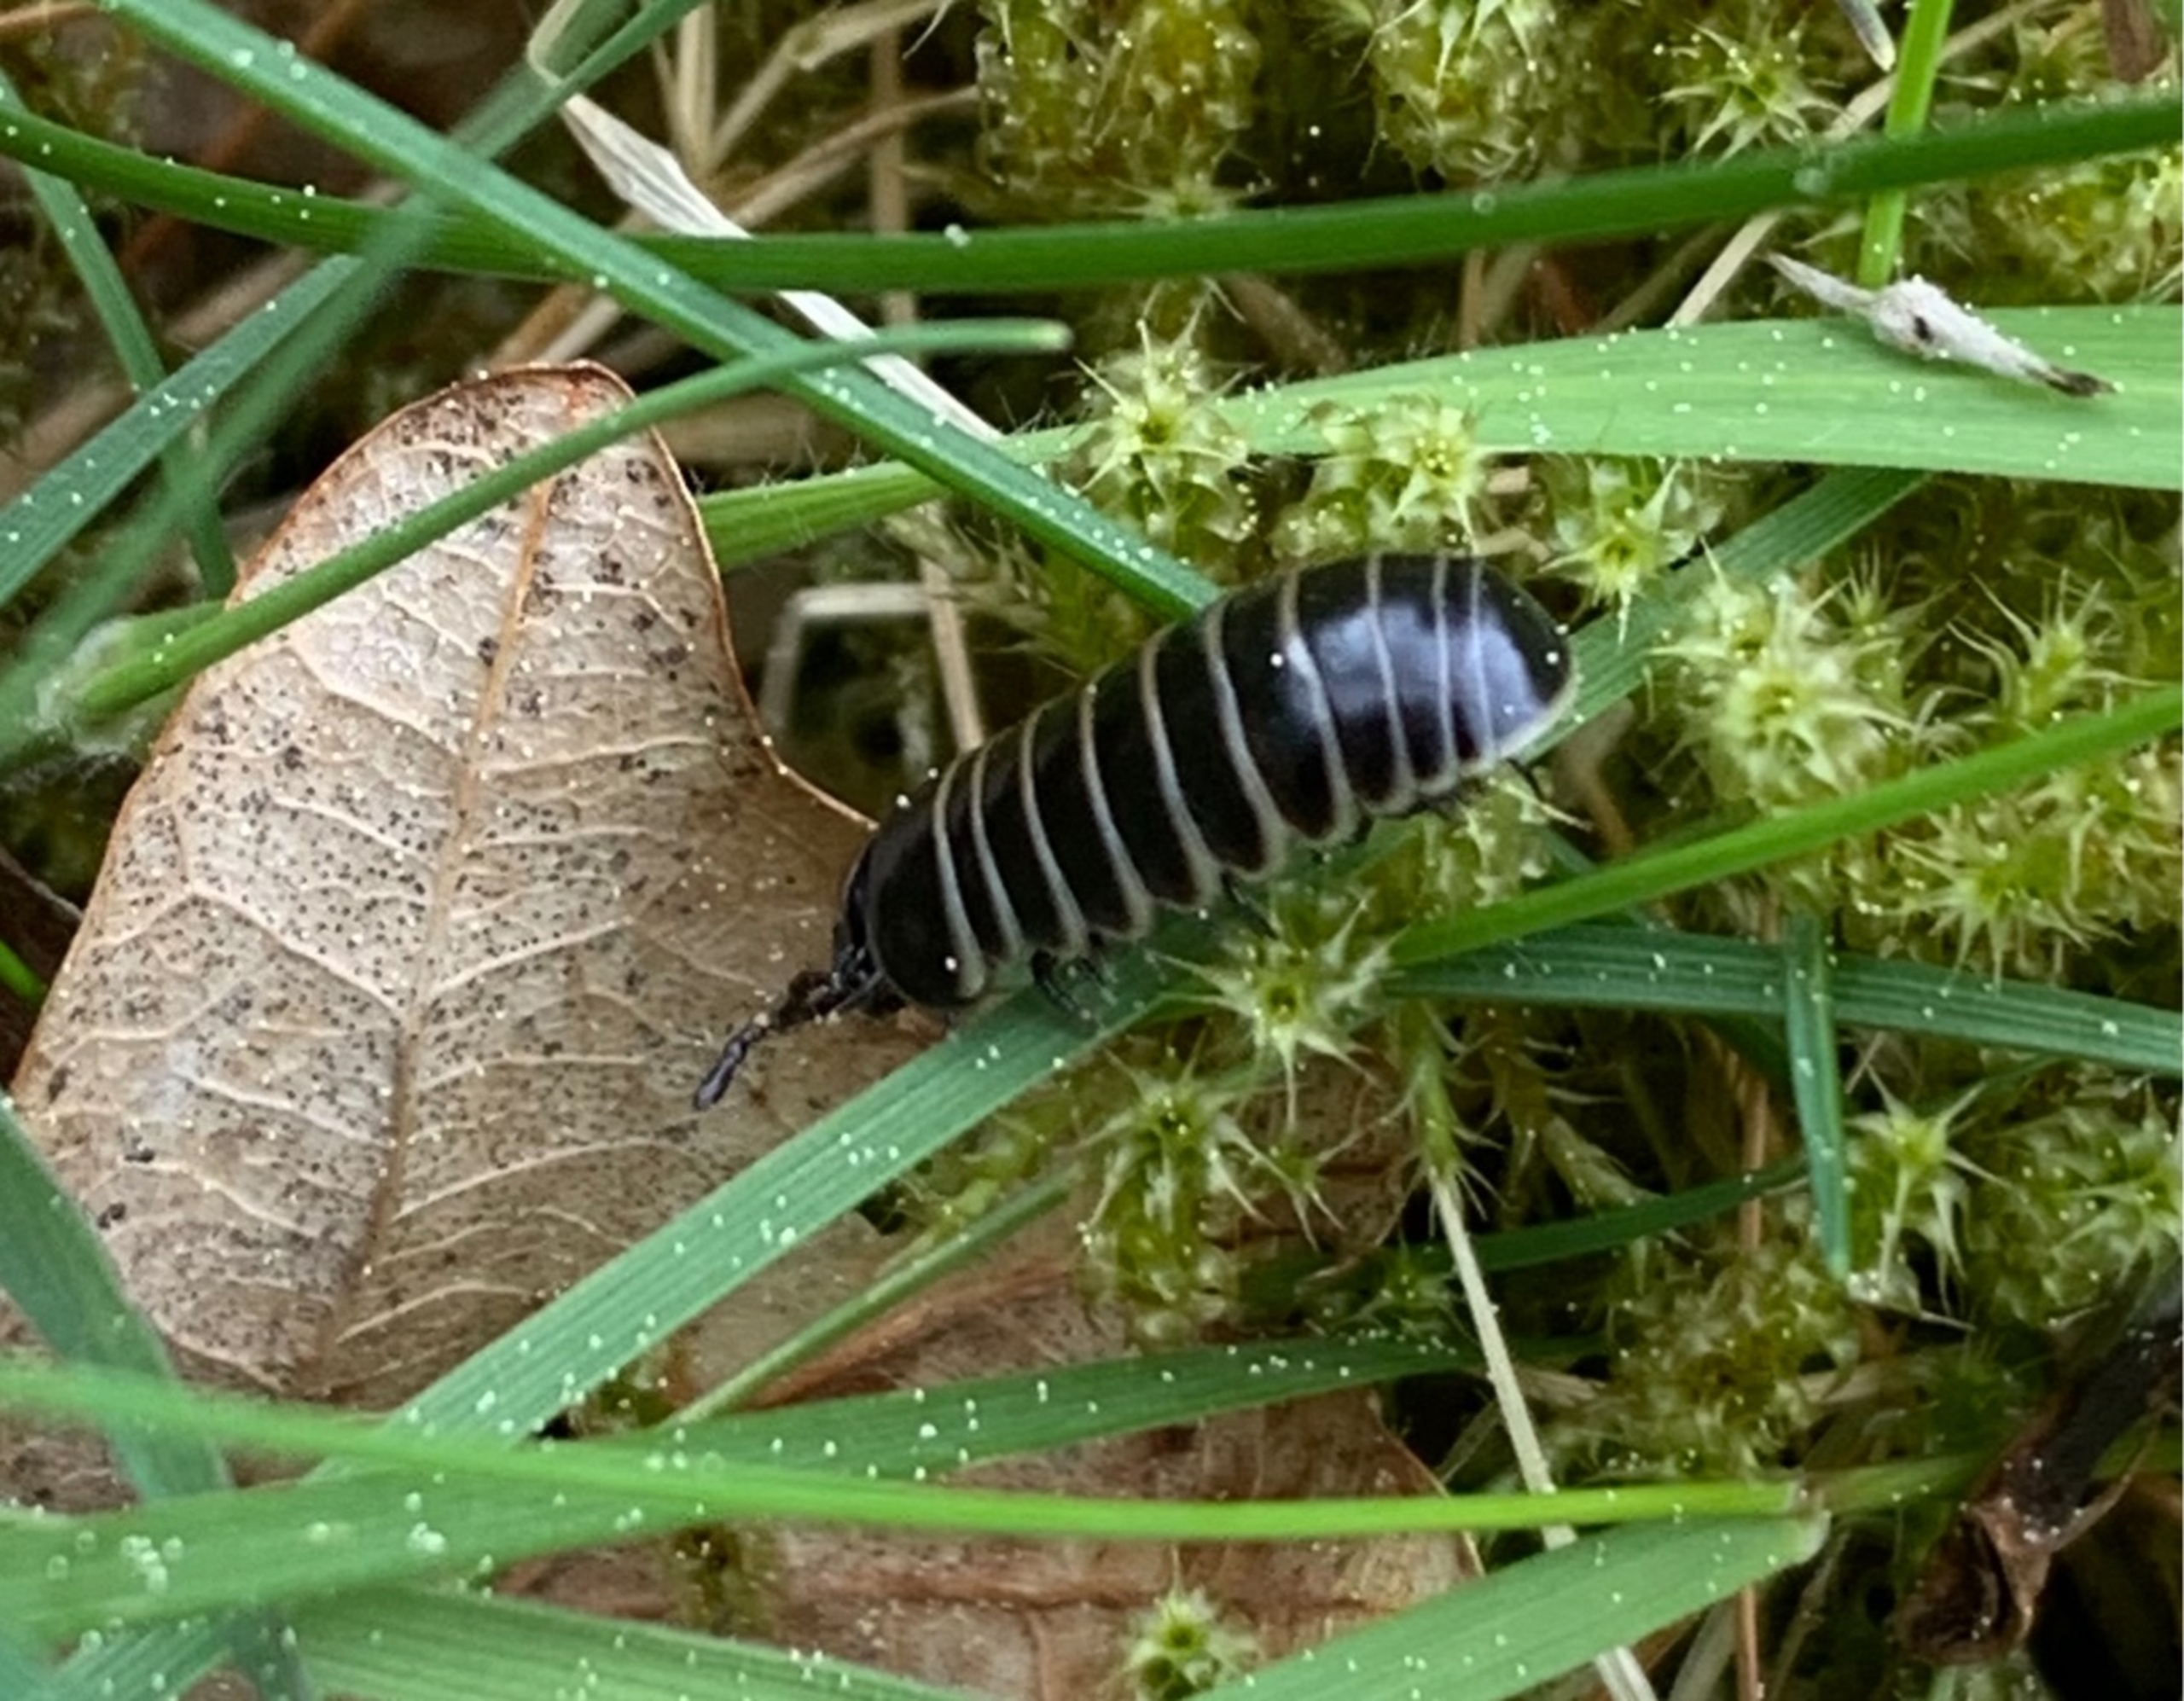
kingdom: Animalia
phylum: Arthropoda
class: Diplopoda
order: Glomerida
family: Glomeridae
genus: Glomeris
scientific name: Glomeris marginata
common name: Kugletusindben
